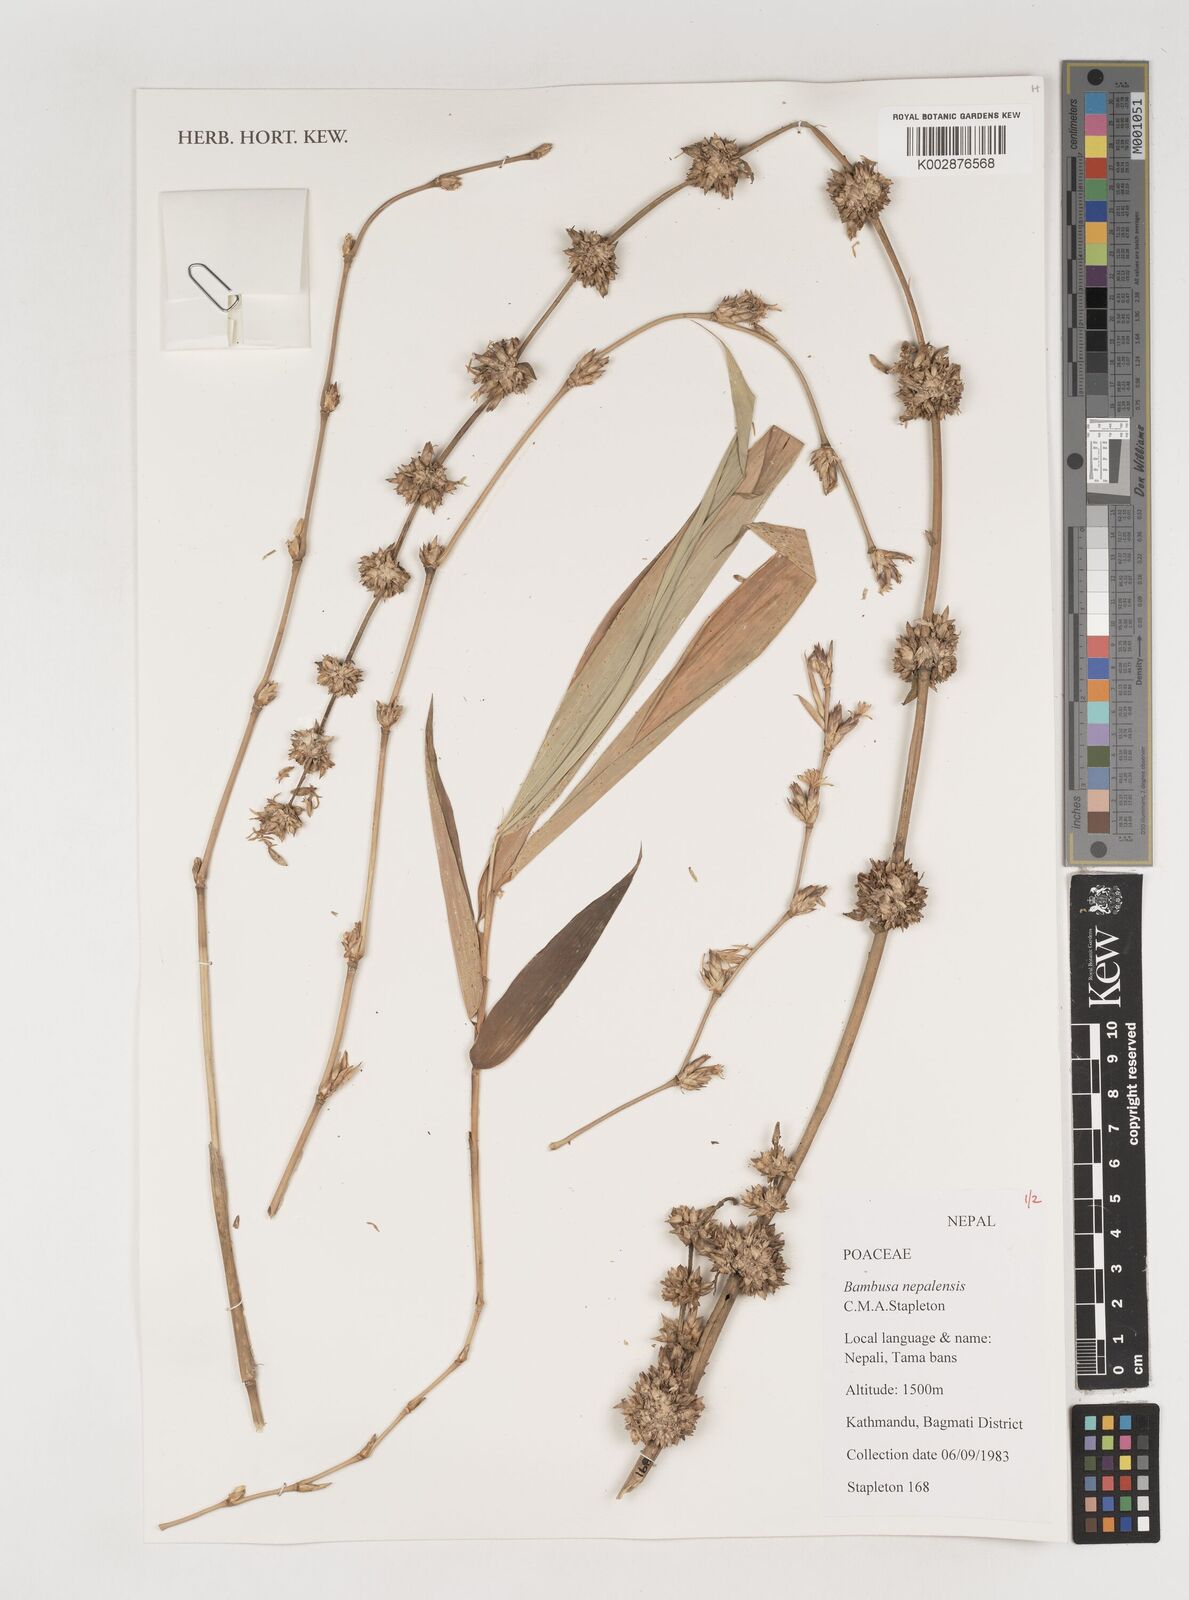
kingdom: Plantae
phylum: Tracheophyta
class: Liliopsida
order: Poales
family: Poaceae
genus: Bambusa
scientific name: Bambusa nepalensis
